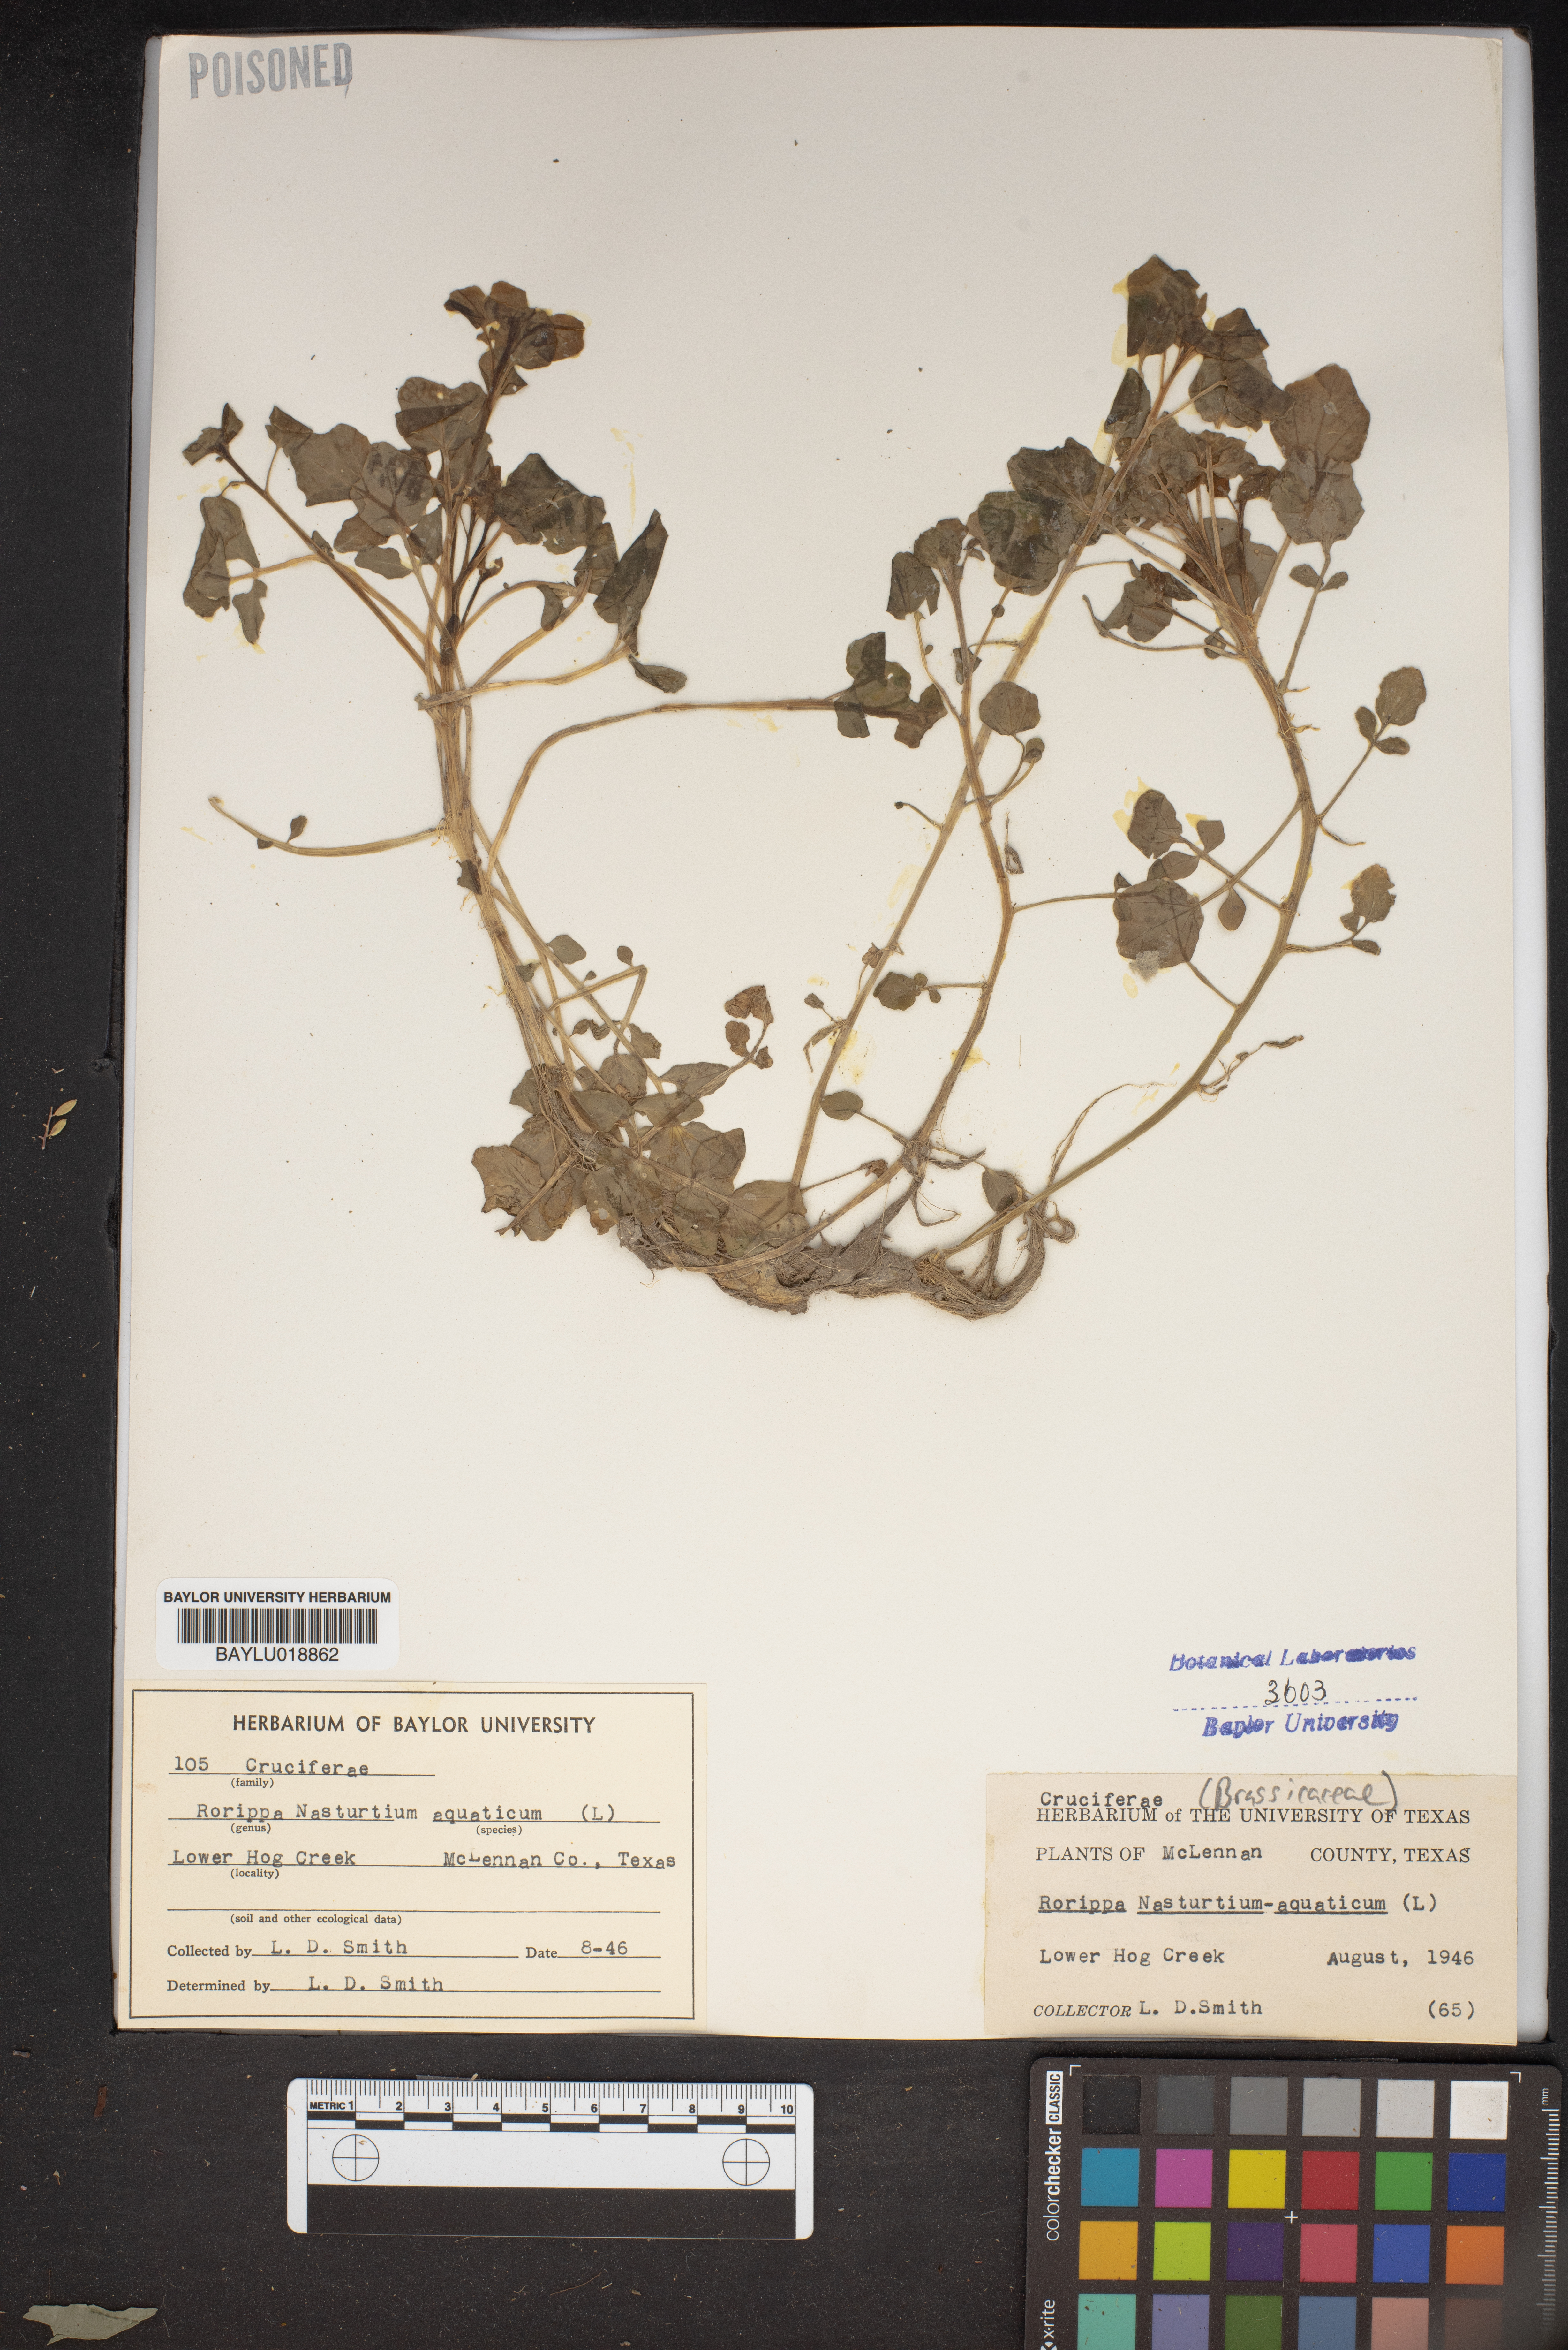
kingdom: Plantae
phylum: Tracheophyta
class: Magnoliopsida
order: Brassicales
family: Brassicaceae
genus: Nasturtium
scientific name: Nasturtium officinale
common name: Watercress
